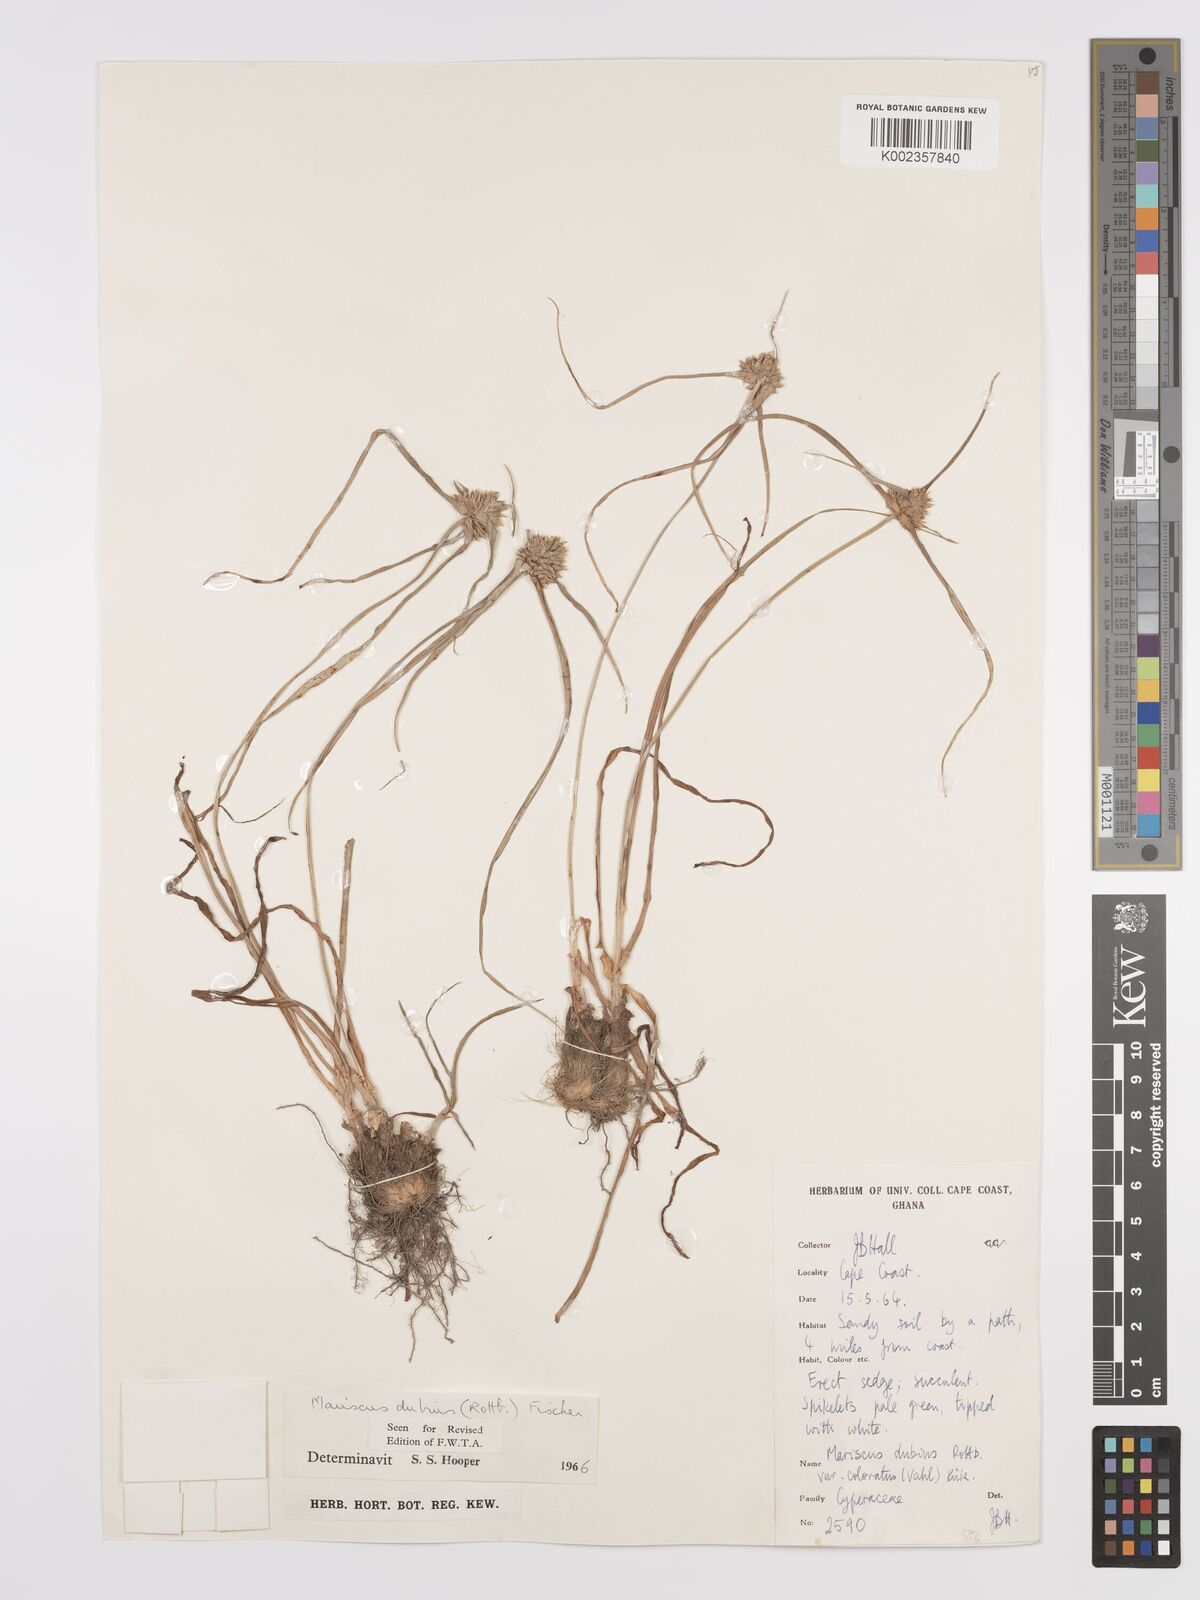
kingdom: Plantae
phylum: Tracheophyta
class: Liliopsida
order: Poales
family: Cyperaceae
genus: Cyperus
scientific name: Cyperus dubius
